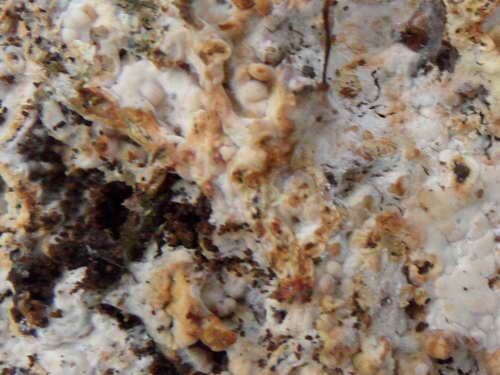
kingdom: Fungi
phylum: Basidiomycota
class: Agaricomycetes
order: Russulales
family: Peniophoraceae
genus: Gloiothele
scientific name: Gloiothele lactescens
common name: bitter olieskind
